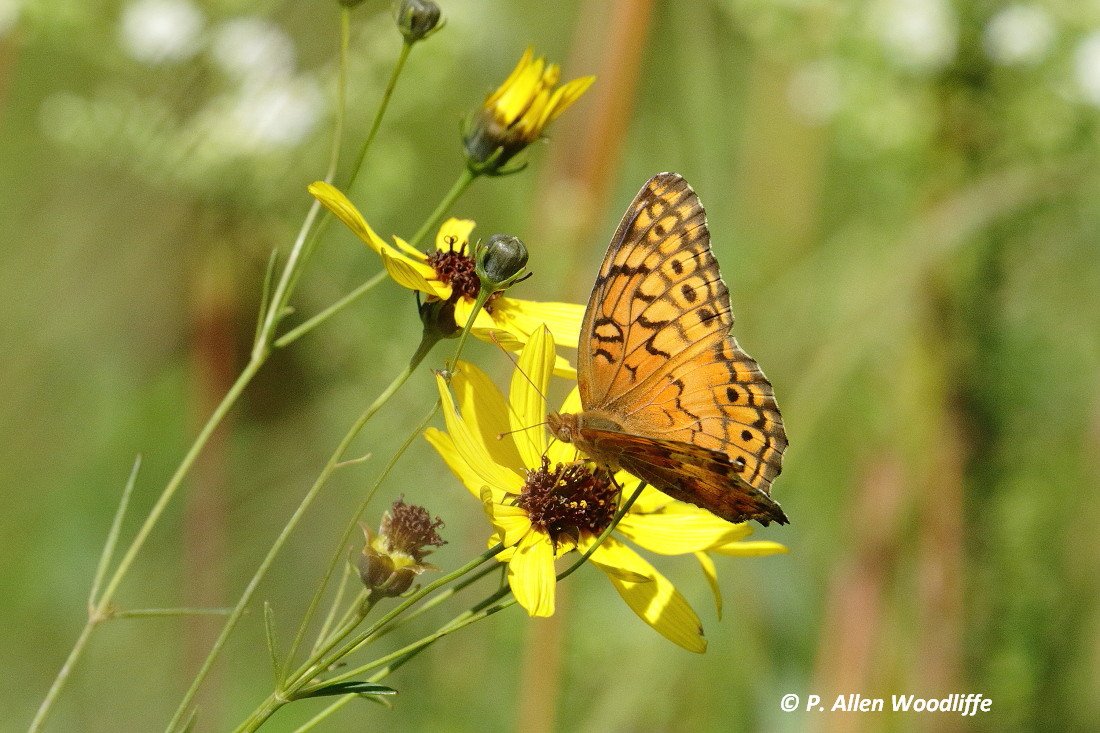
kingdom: Animalia
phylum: Arthropoda
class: Insecta
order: Lepidoptera
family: Nymphalidae
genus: Euptoieta
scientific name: Euptoieta claudia
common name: Variegated Fritillary
